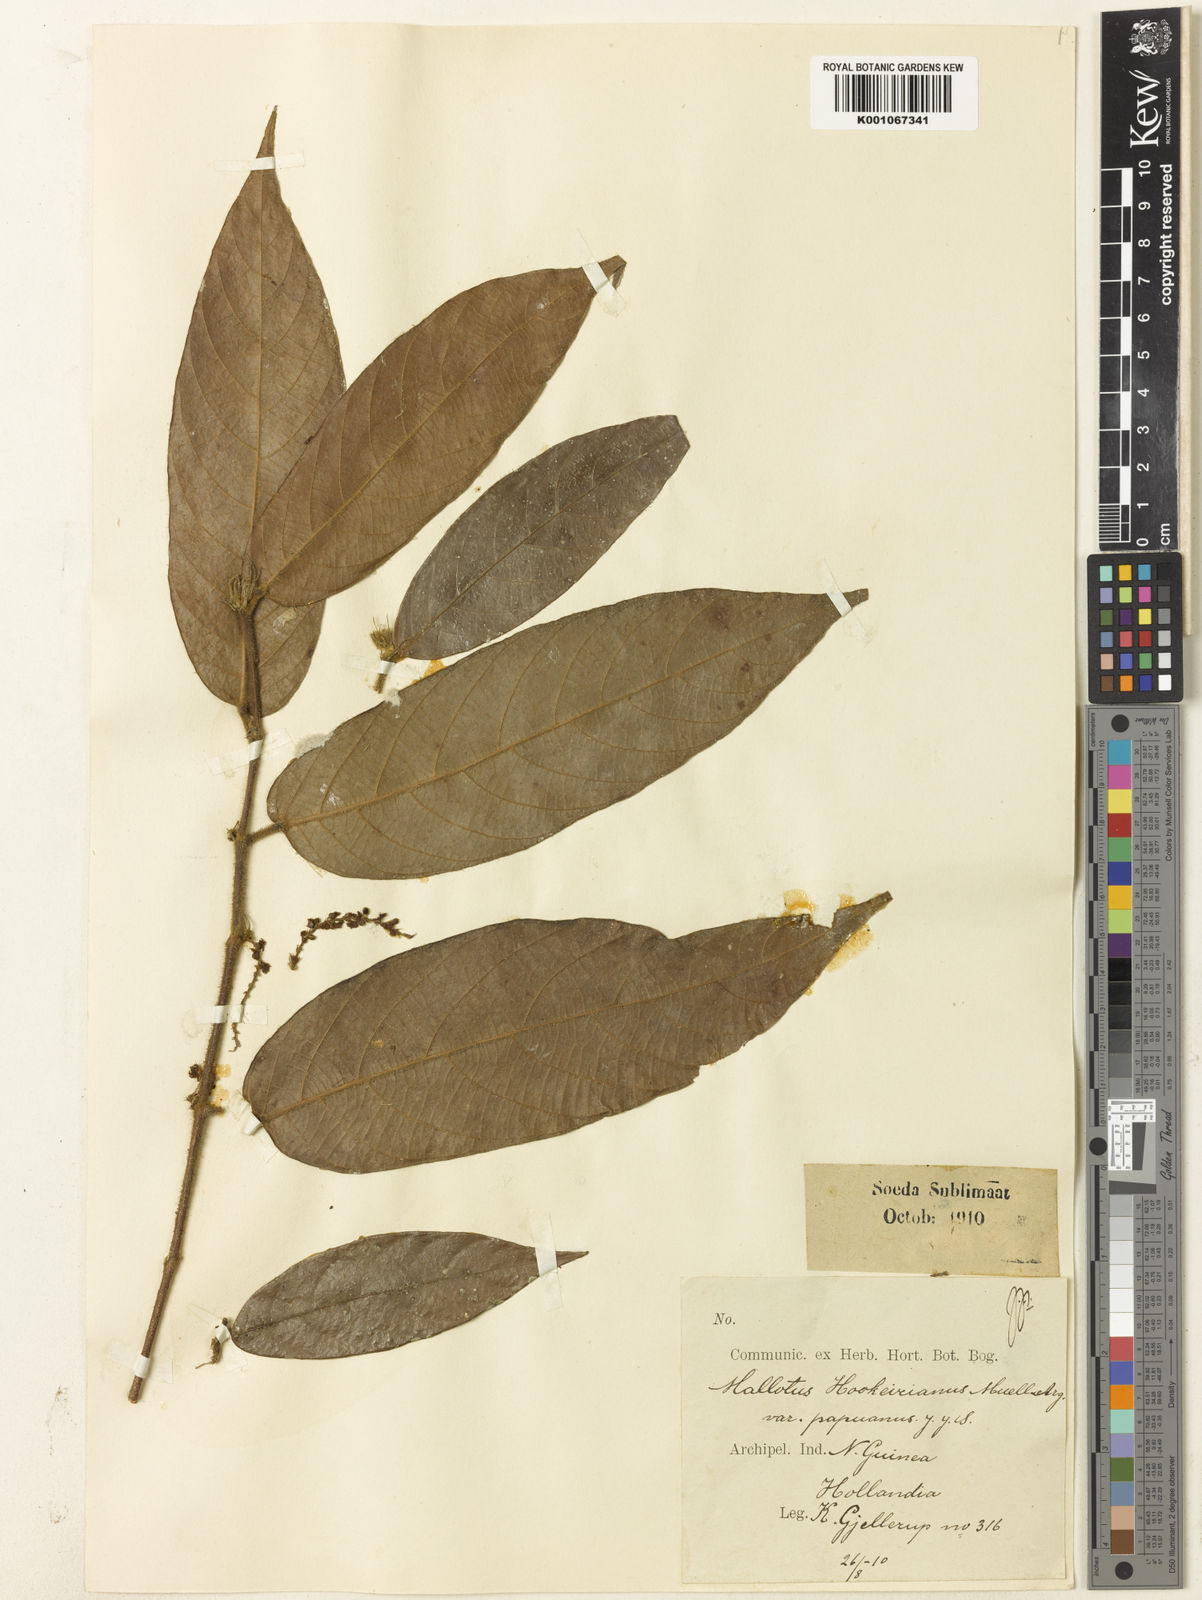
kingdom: Plantae
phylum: Tracheophyta
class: Magnoliopsida
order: Malpighiales
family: Euphorbiaceae
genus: Hancea
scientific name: Hancea papuana
